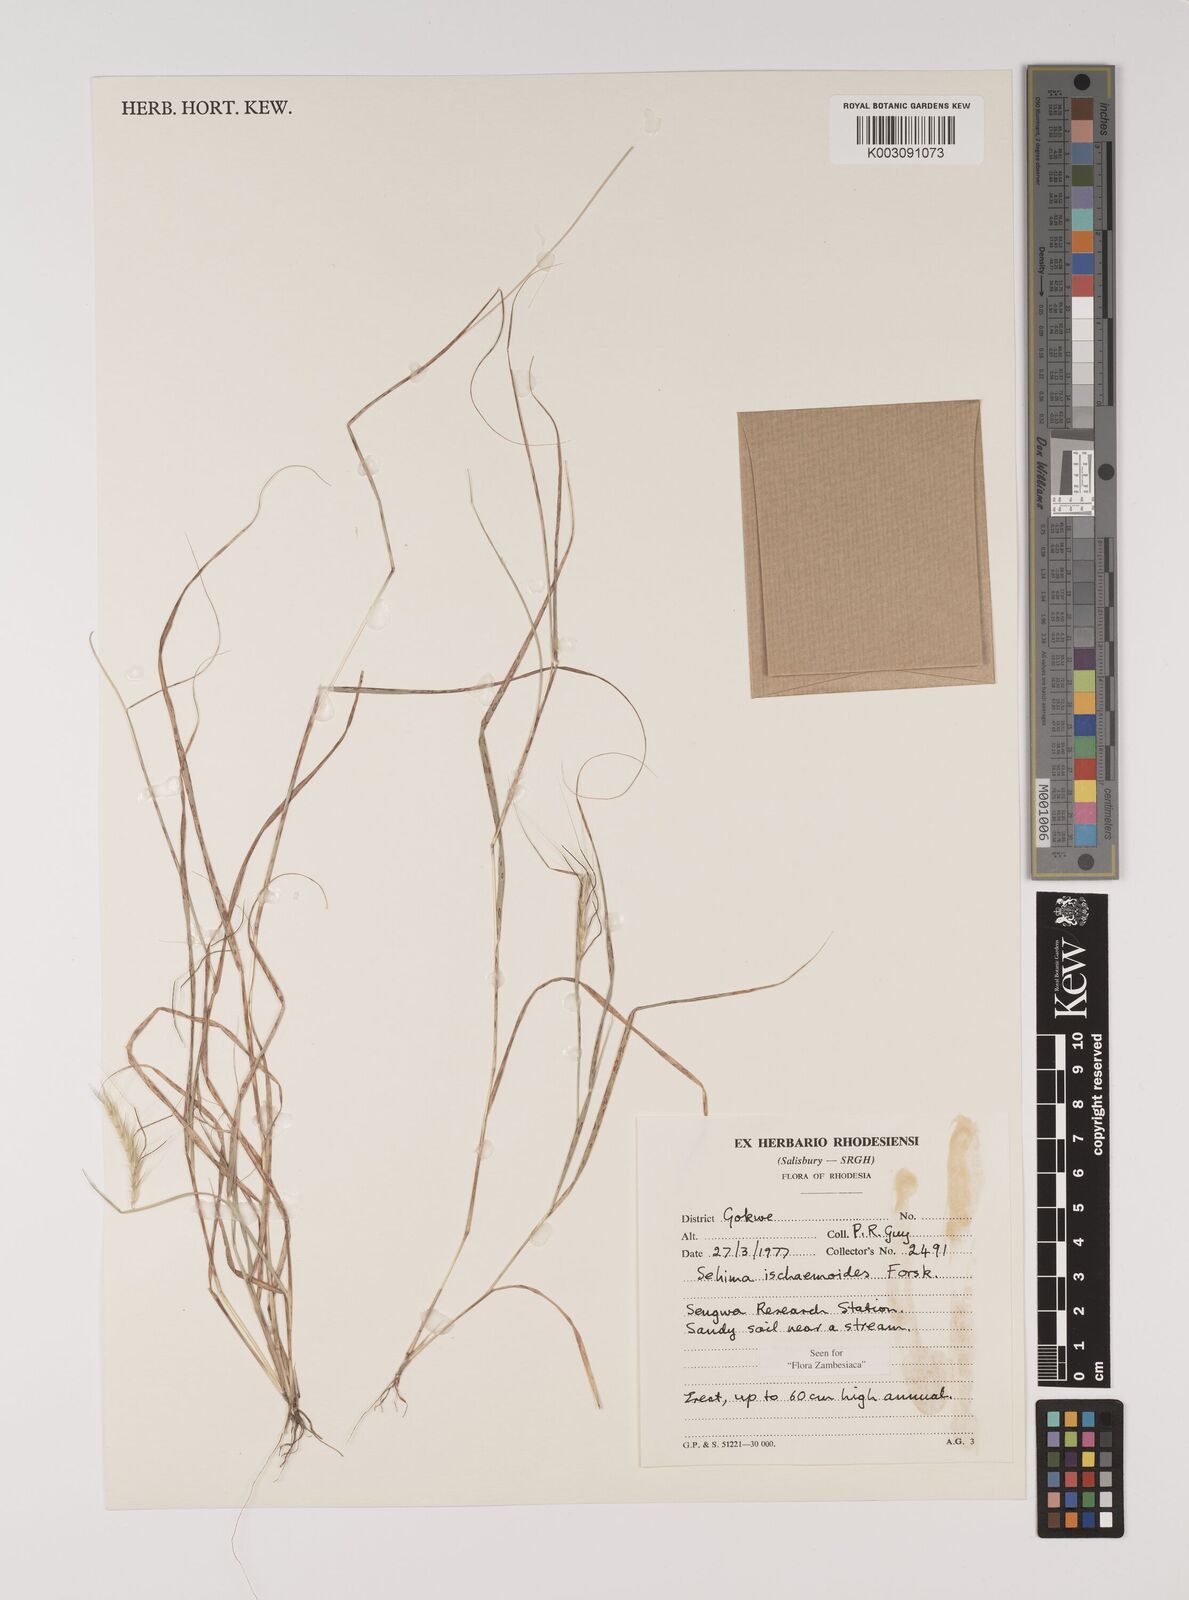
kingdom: Plantae
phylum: Tracheophyta
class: Liliopsida
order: Poales
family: Poaceae
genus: Sehima
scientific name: Sehima ischaemoides
